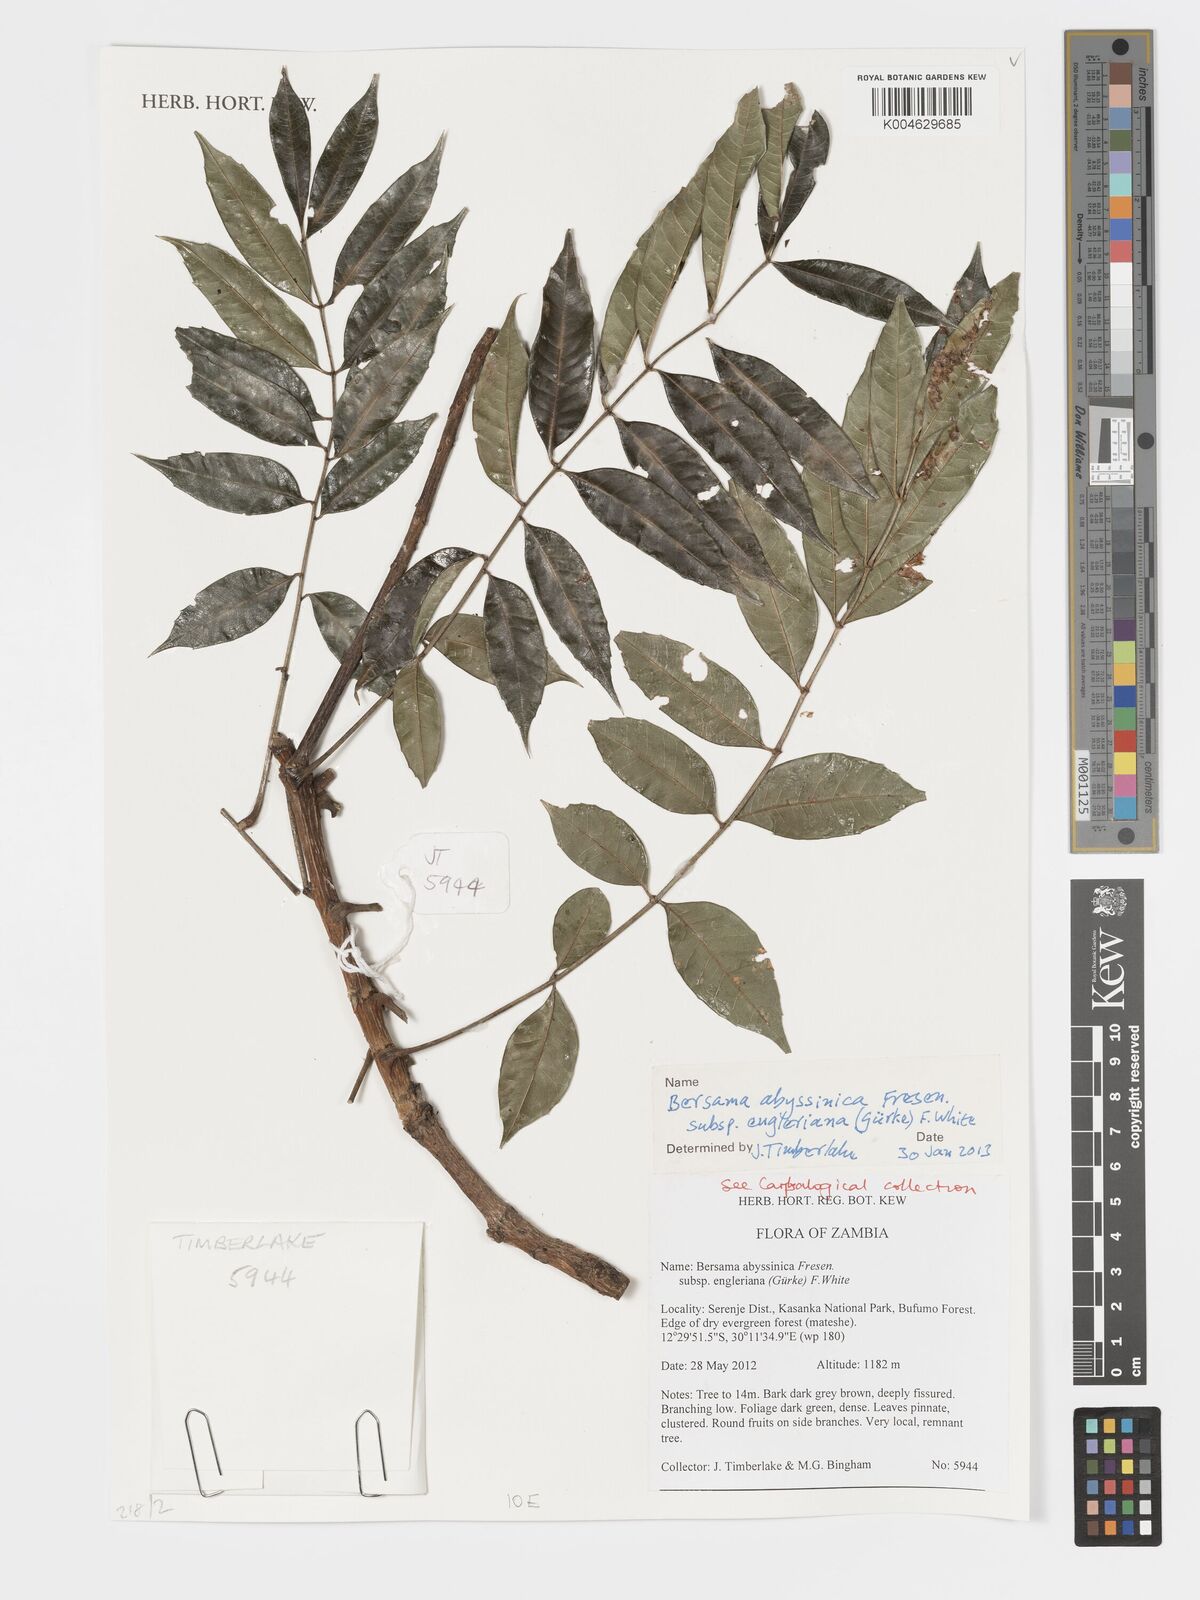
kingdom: Plantae
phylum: Tracheophyta
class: Magnoliopsida
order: Geraniales
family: Melianthaceae
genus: Bersama
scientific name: Bersama abyssinica
